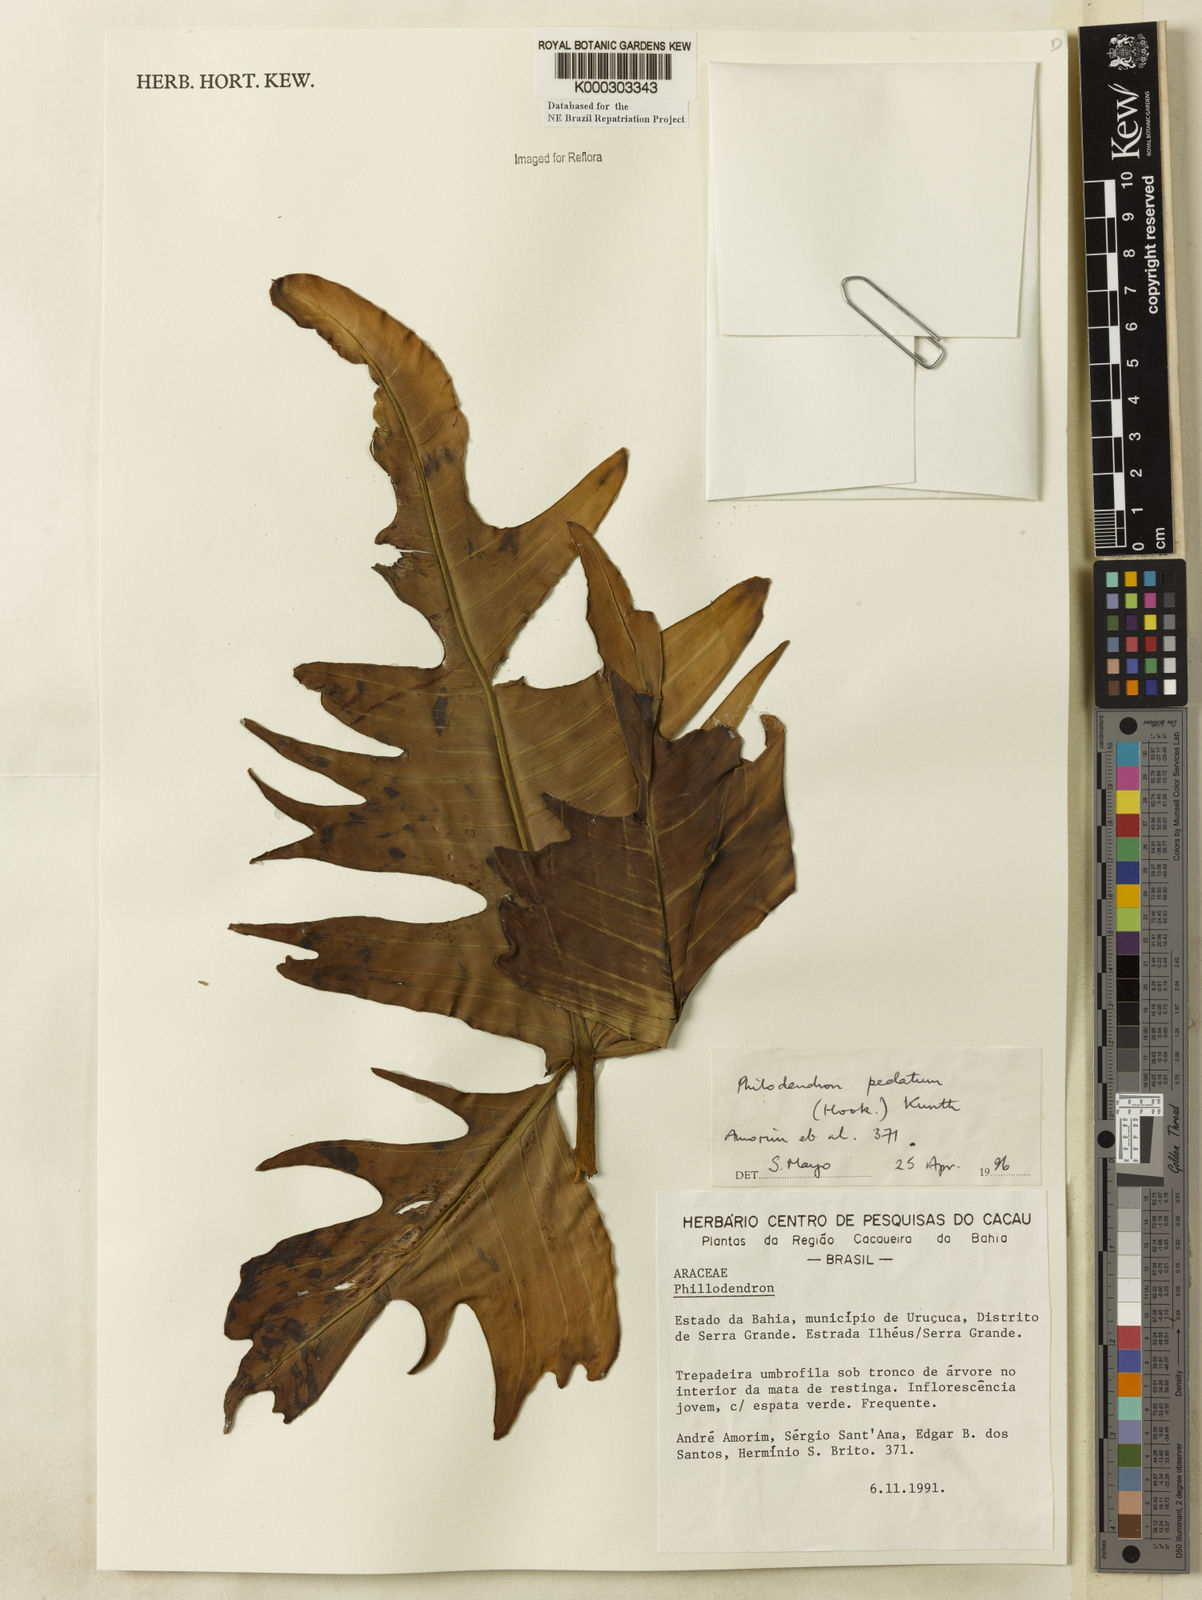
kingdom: Plantae
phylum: Tracheophyta
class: Liliopsida
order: Alismatales
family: Araceae
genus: Philodendron
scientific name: Philodendron pedatum
